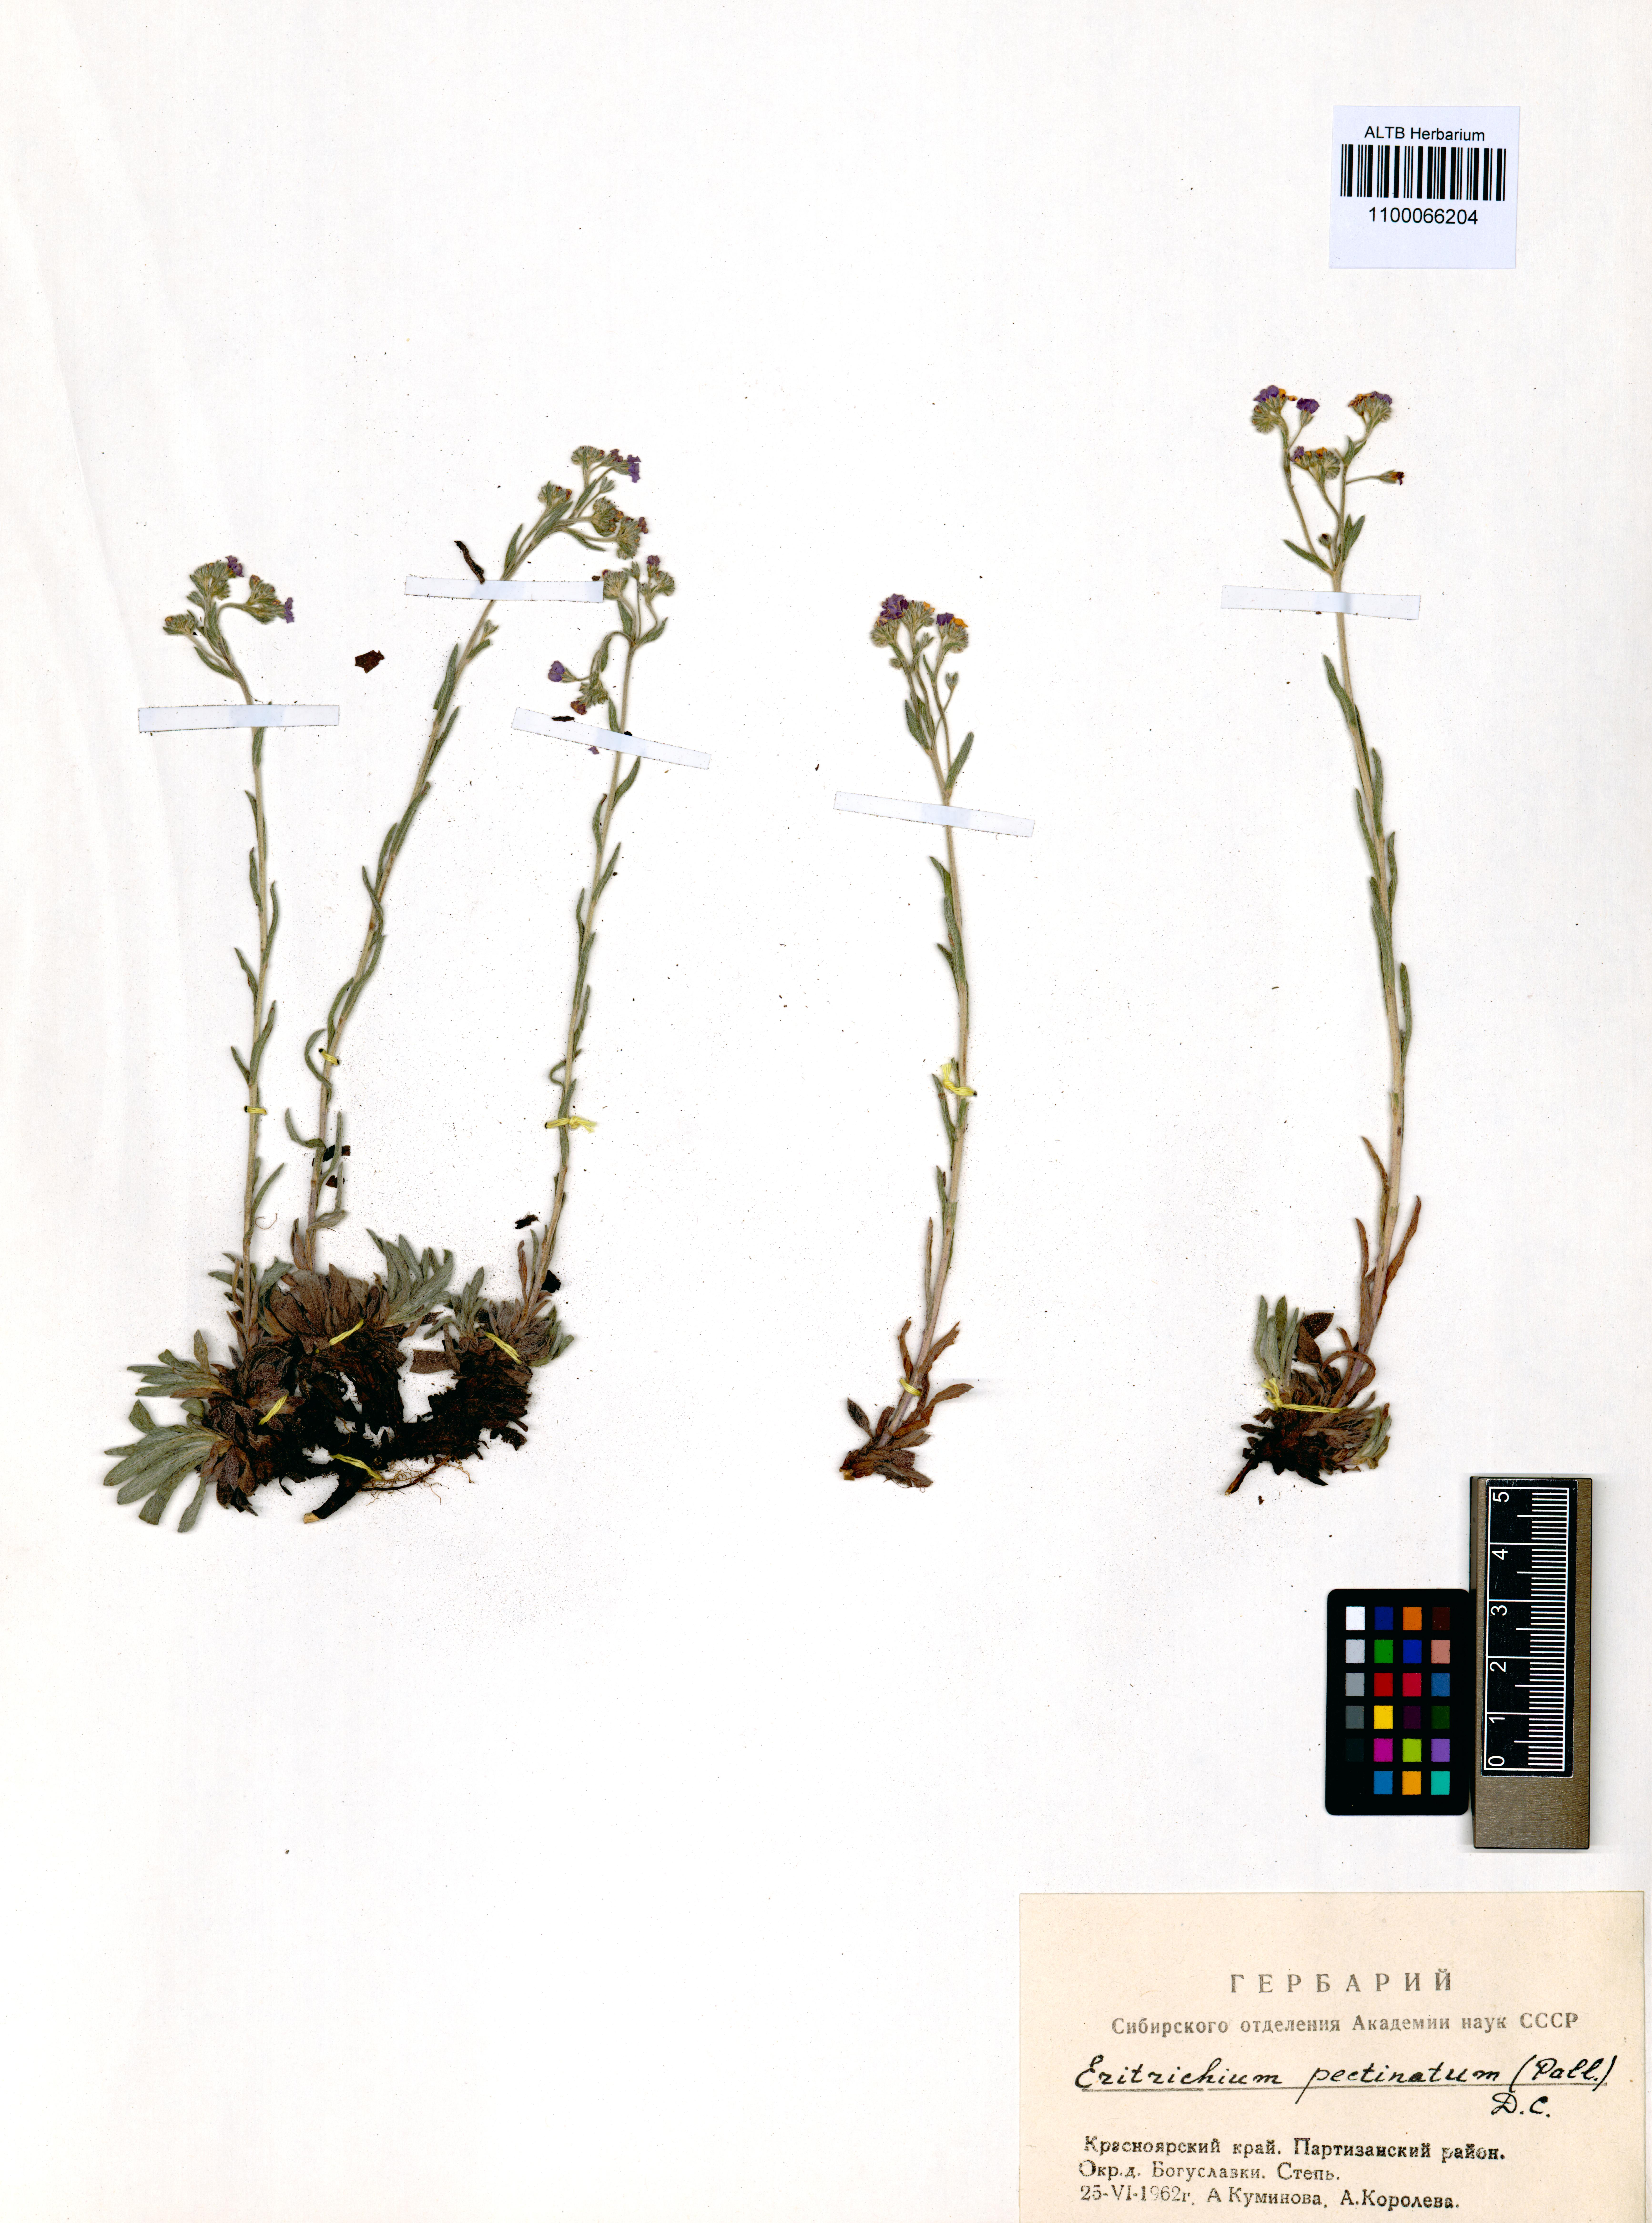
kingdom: Plantae
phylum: Tracheophyta
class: Magnoliopsida
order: Boraginales
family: Boraginaceae
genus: Eritrichium
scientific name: Eritrichium pectinatum
